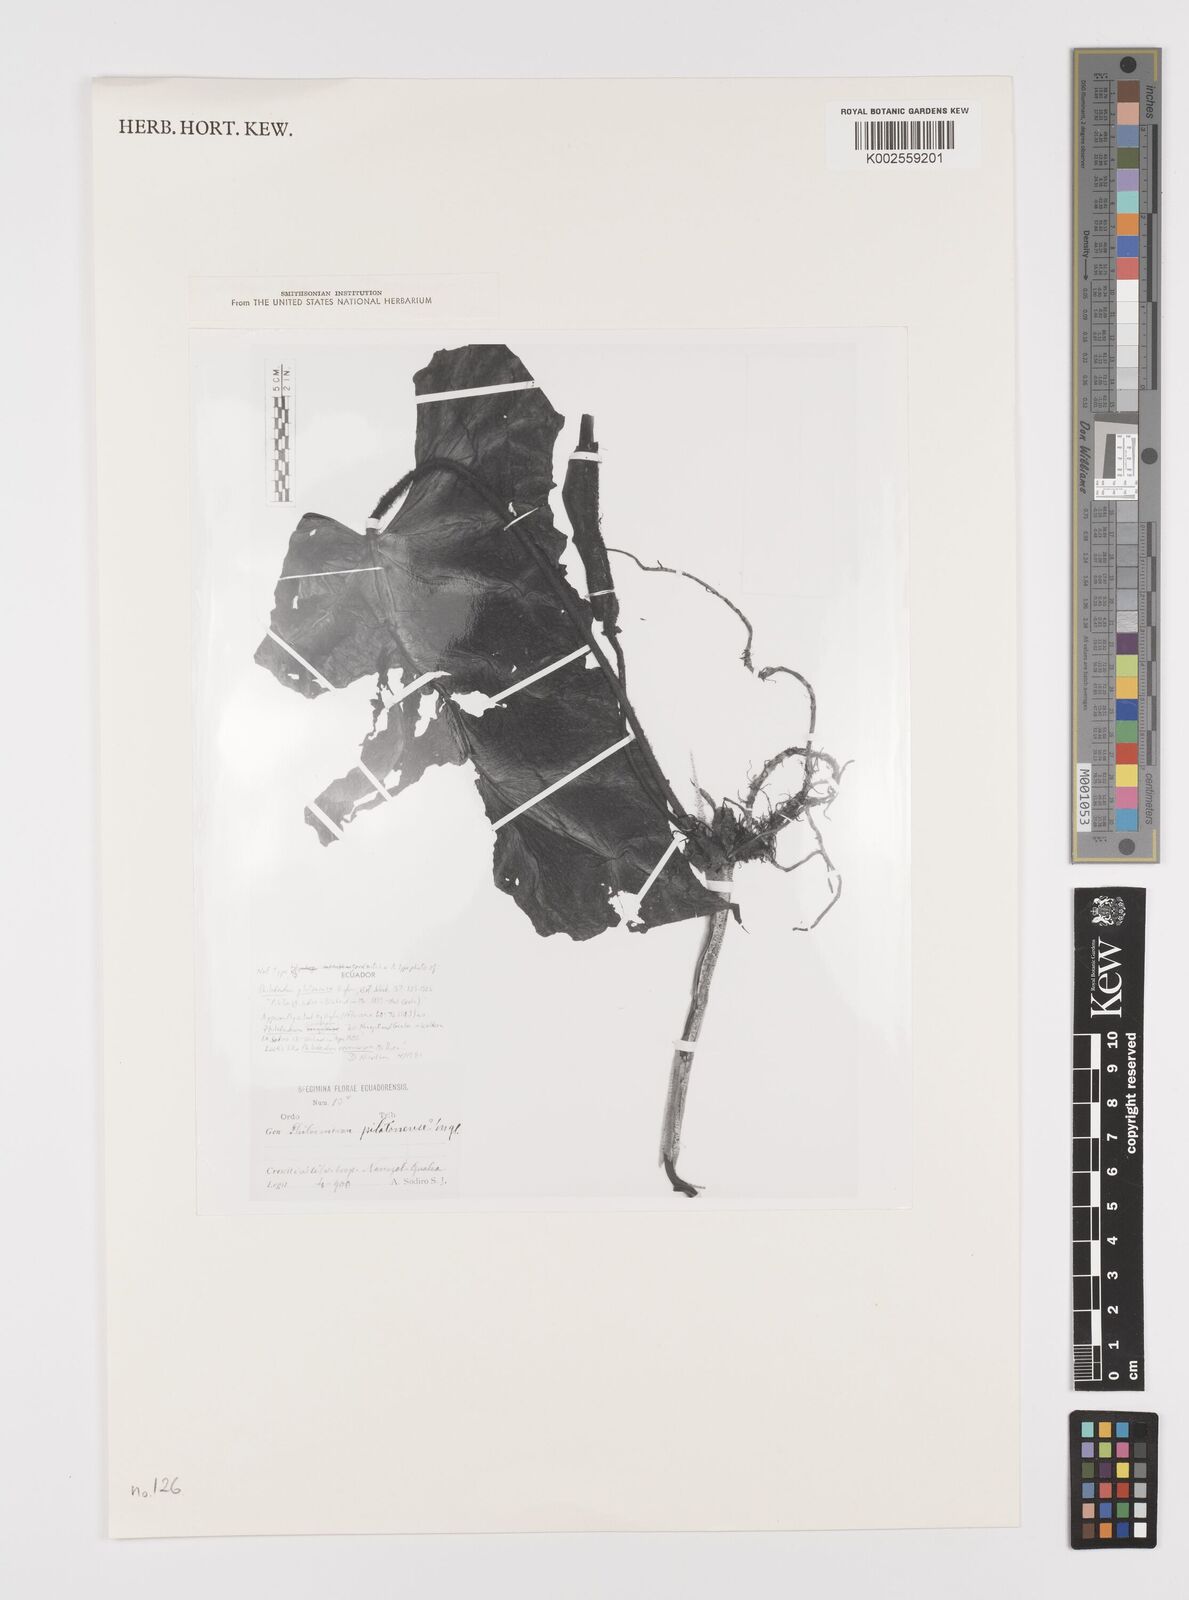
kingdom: Plantae
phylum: Tracheophyta
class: Liliopsida
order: Alismatales
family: Araceae
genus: Philodendron
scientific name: Philodendron verrucosum
